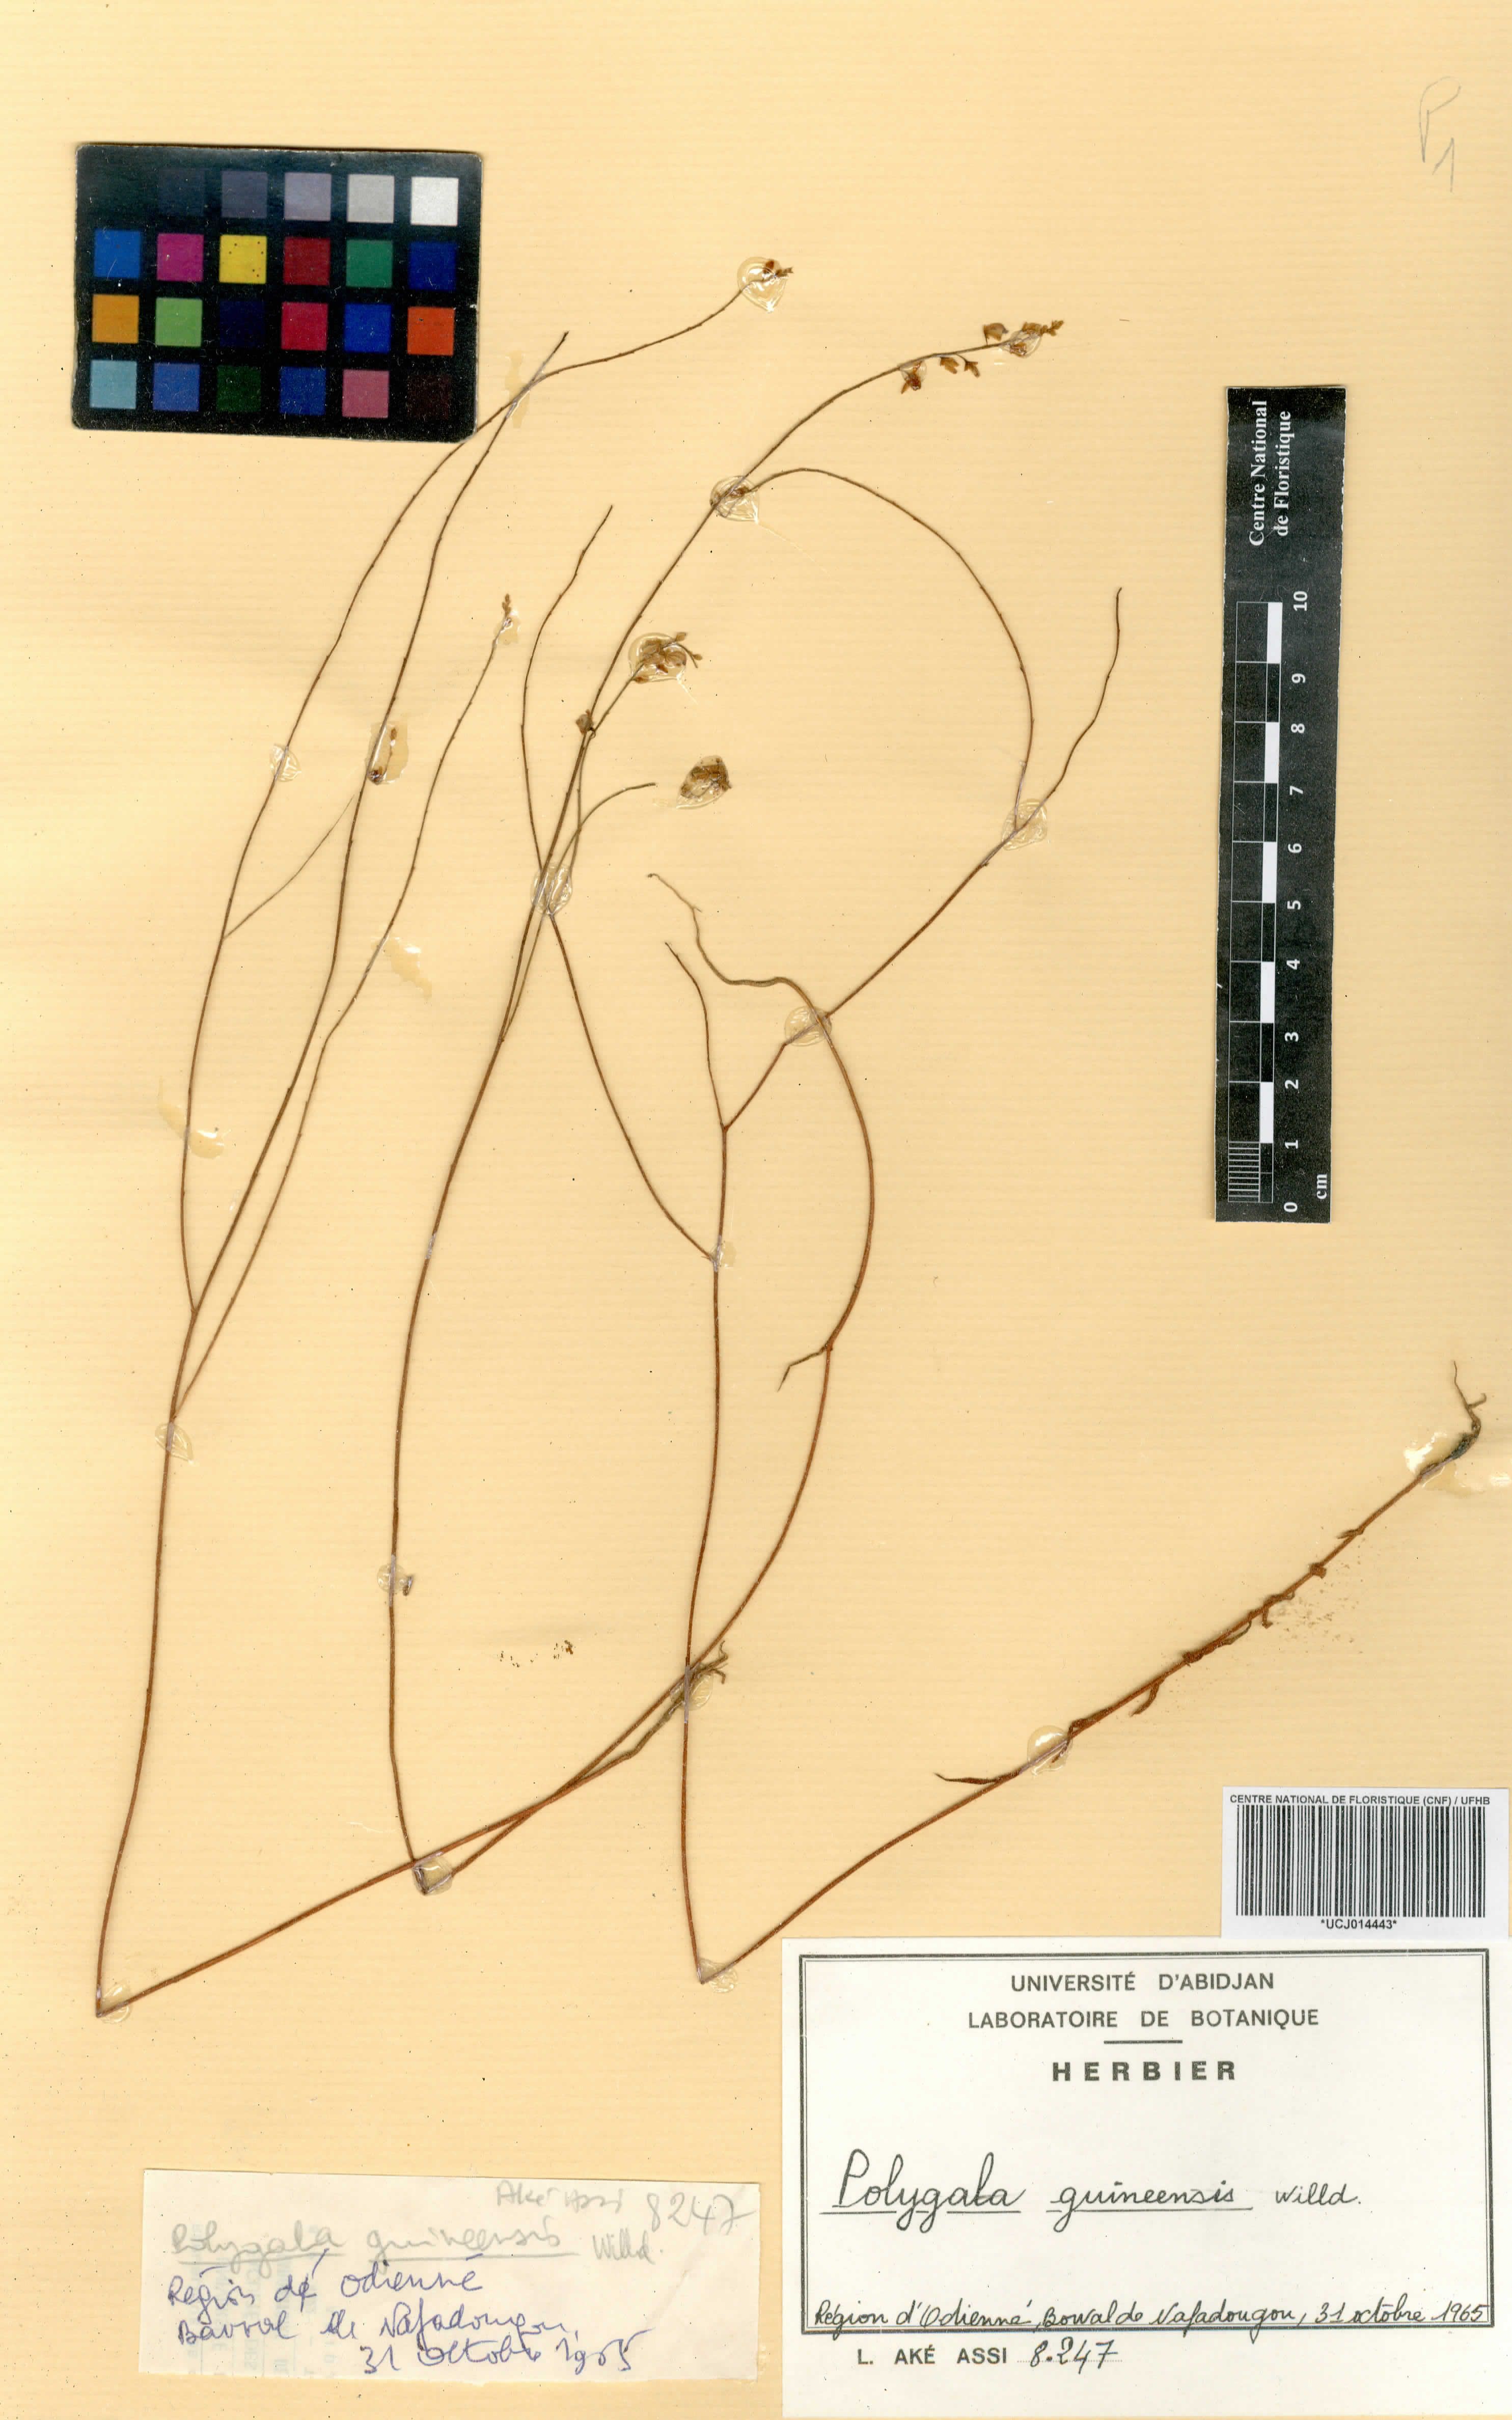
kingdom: Plantae
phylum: Tracheophyta
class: Magnoliopsida
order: Fabales
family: Polygalaceae
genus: Polygala
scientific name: Polygala guineensis
